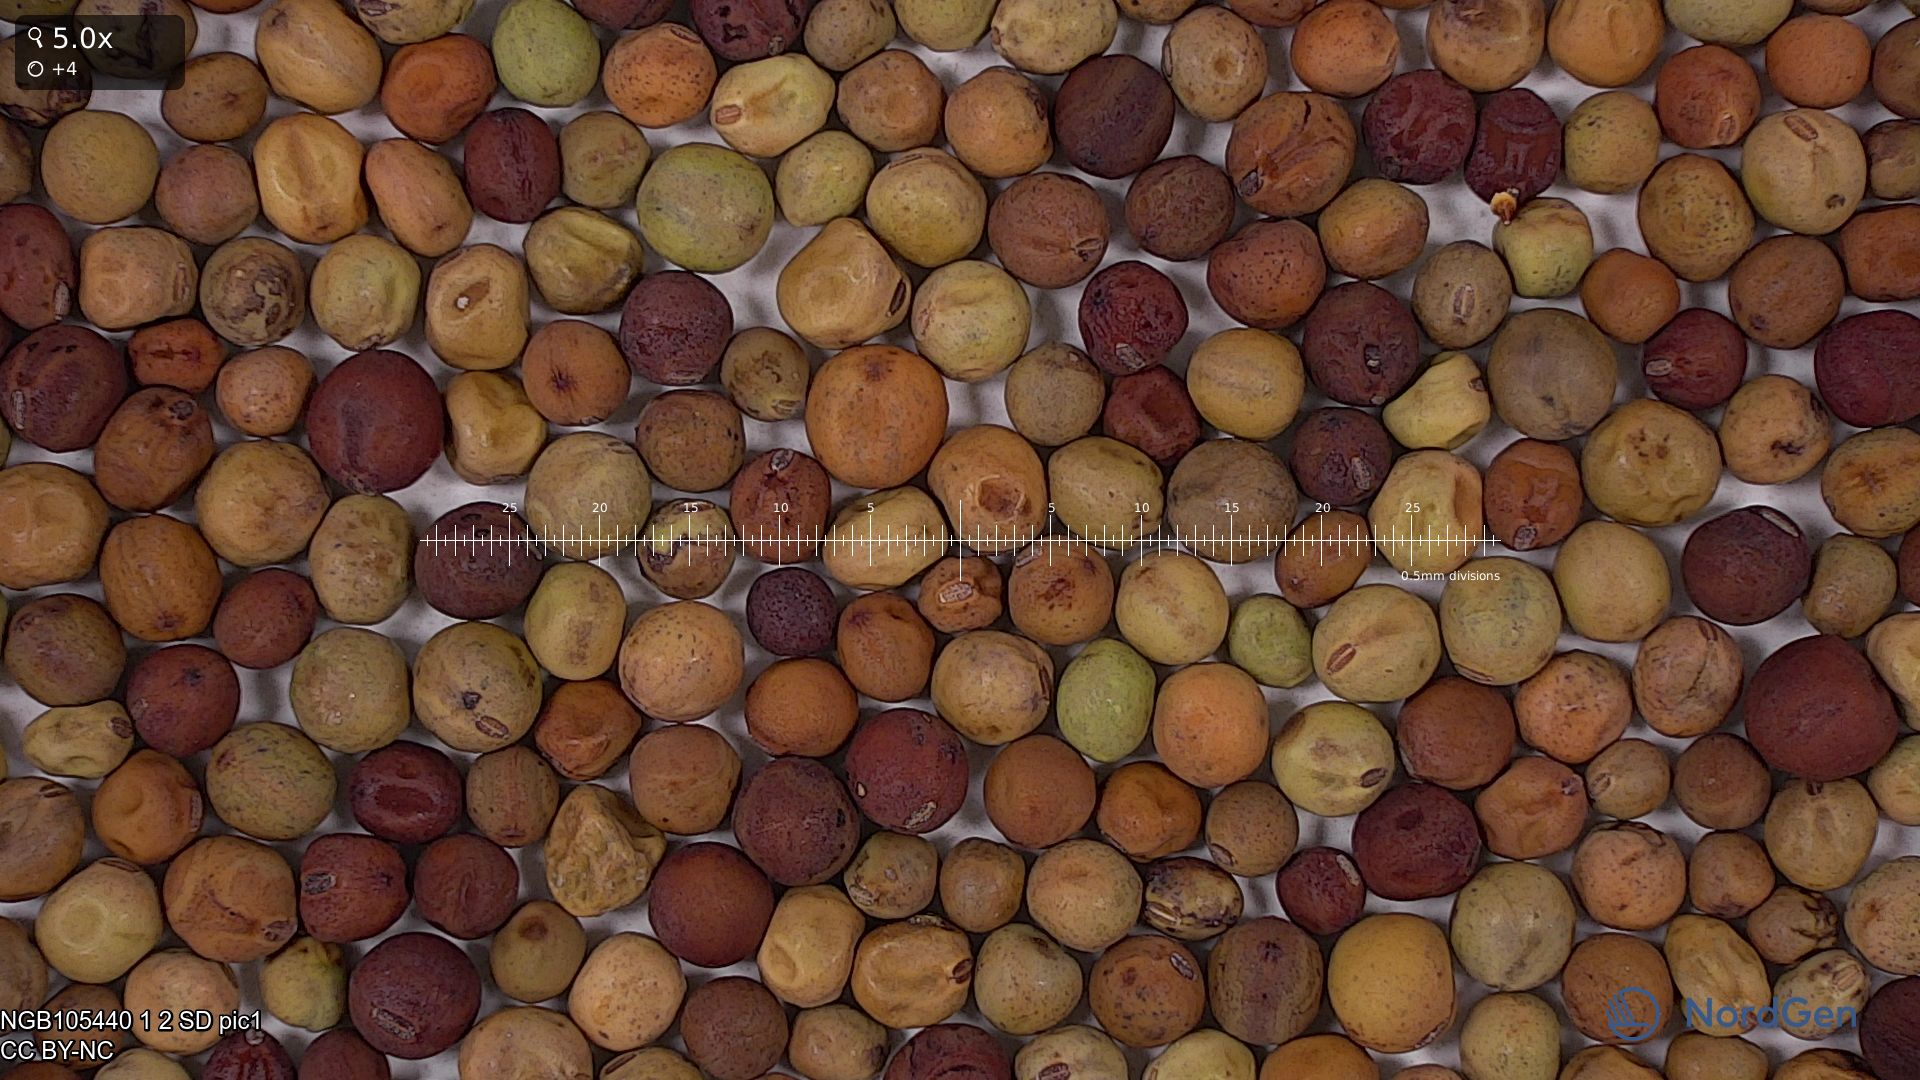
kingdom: Plantae
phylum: Tracheophyta
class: Magnoliopsida
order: Fabales
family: Fabaceae
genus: Lathyrus
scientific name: Lathyrus oleraceus
